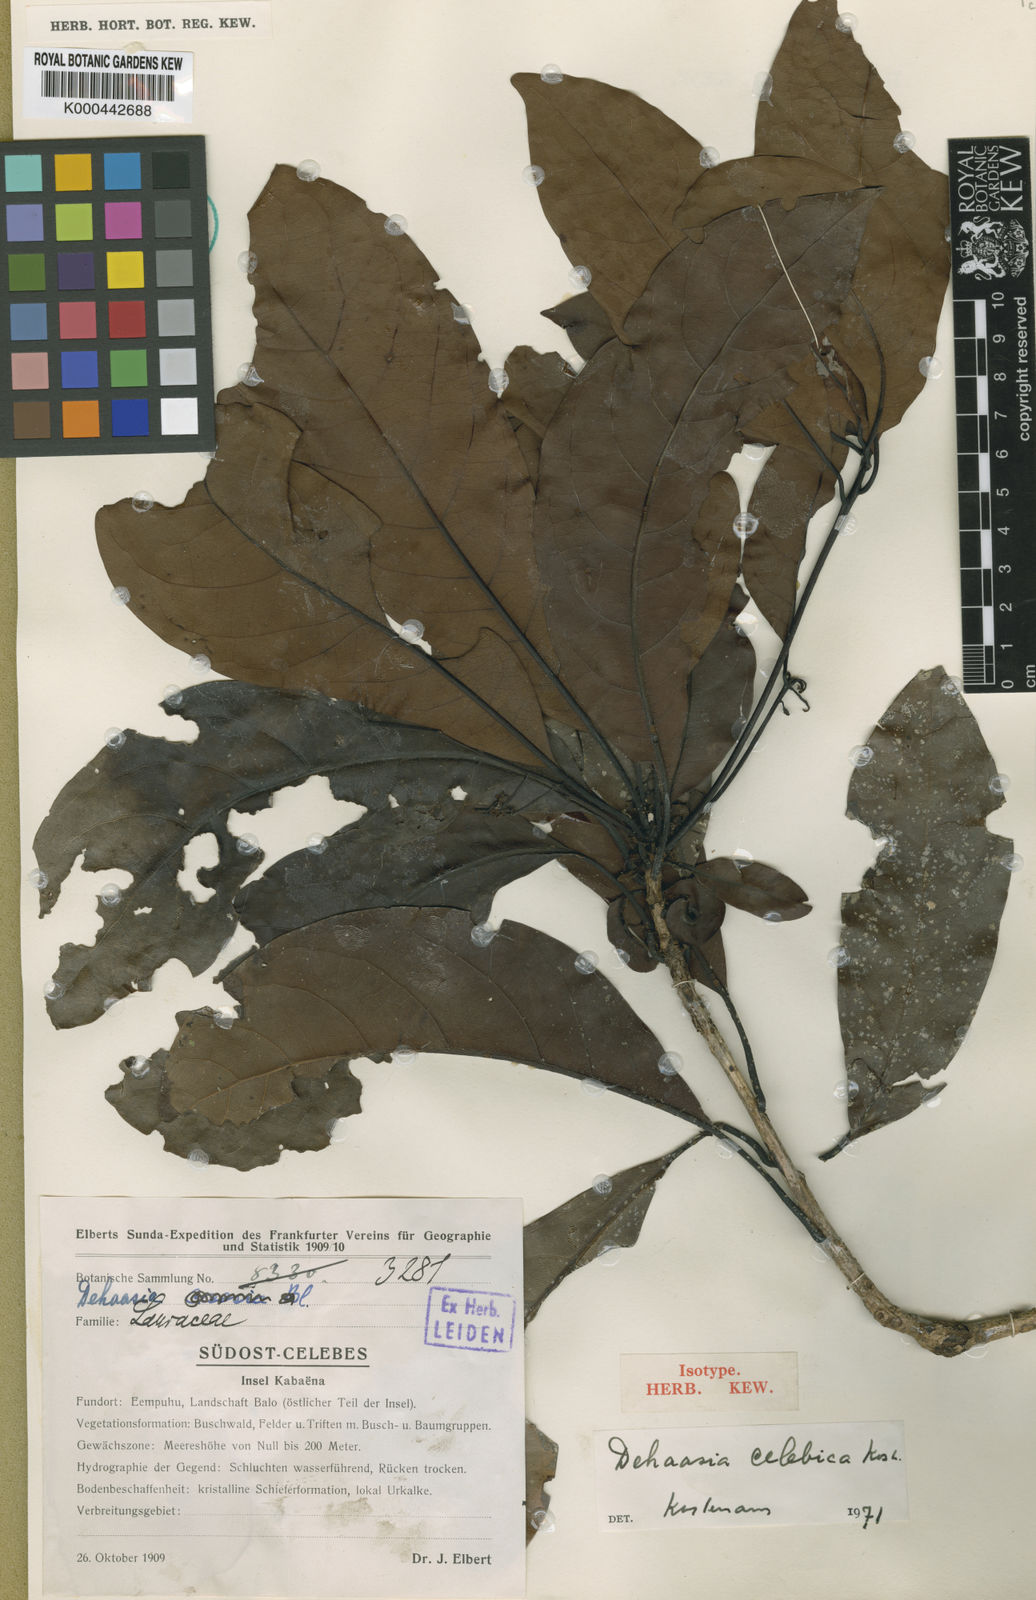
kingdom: Plantae
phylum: Tracheophyta
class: Magnoliopsida
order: Laurales
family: Lauraceae
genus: Dehaasia
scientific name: Dehaasia celebica
